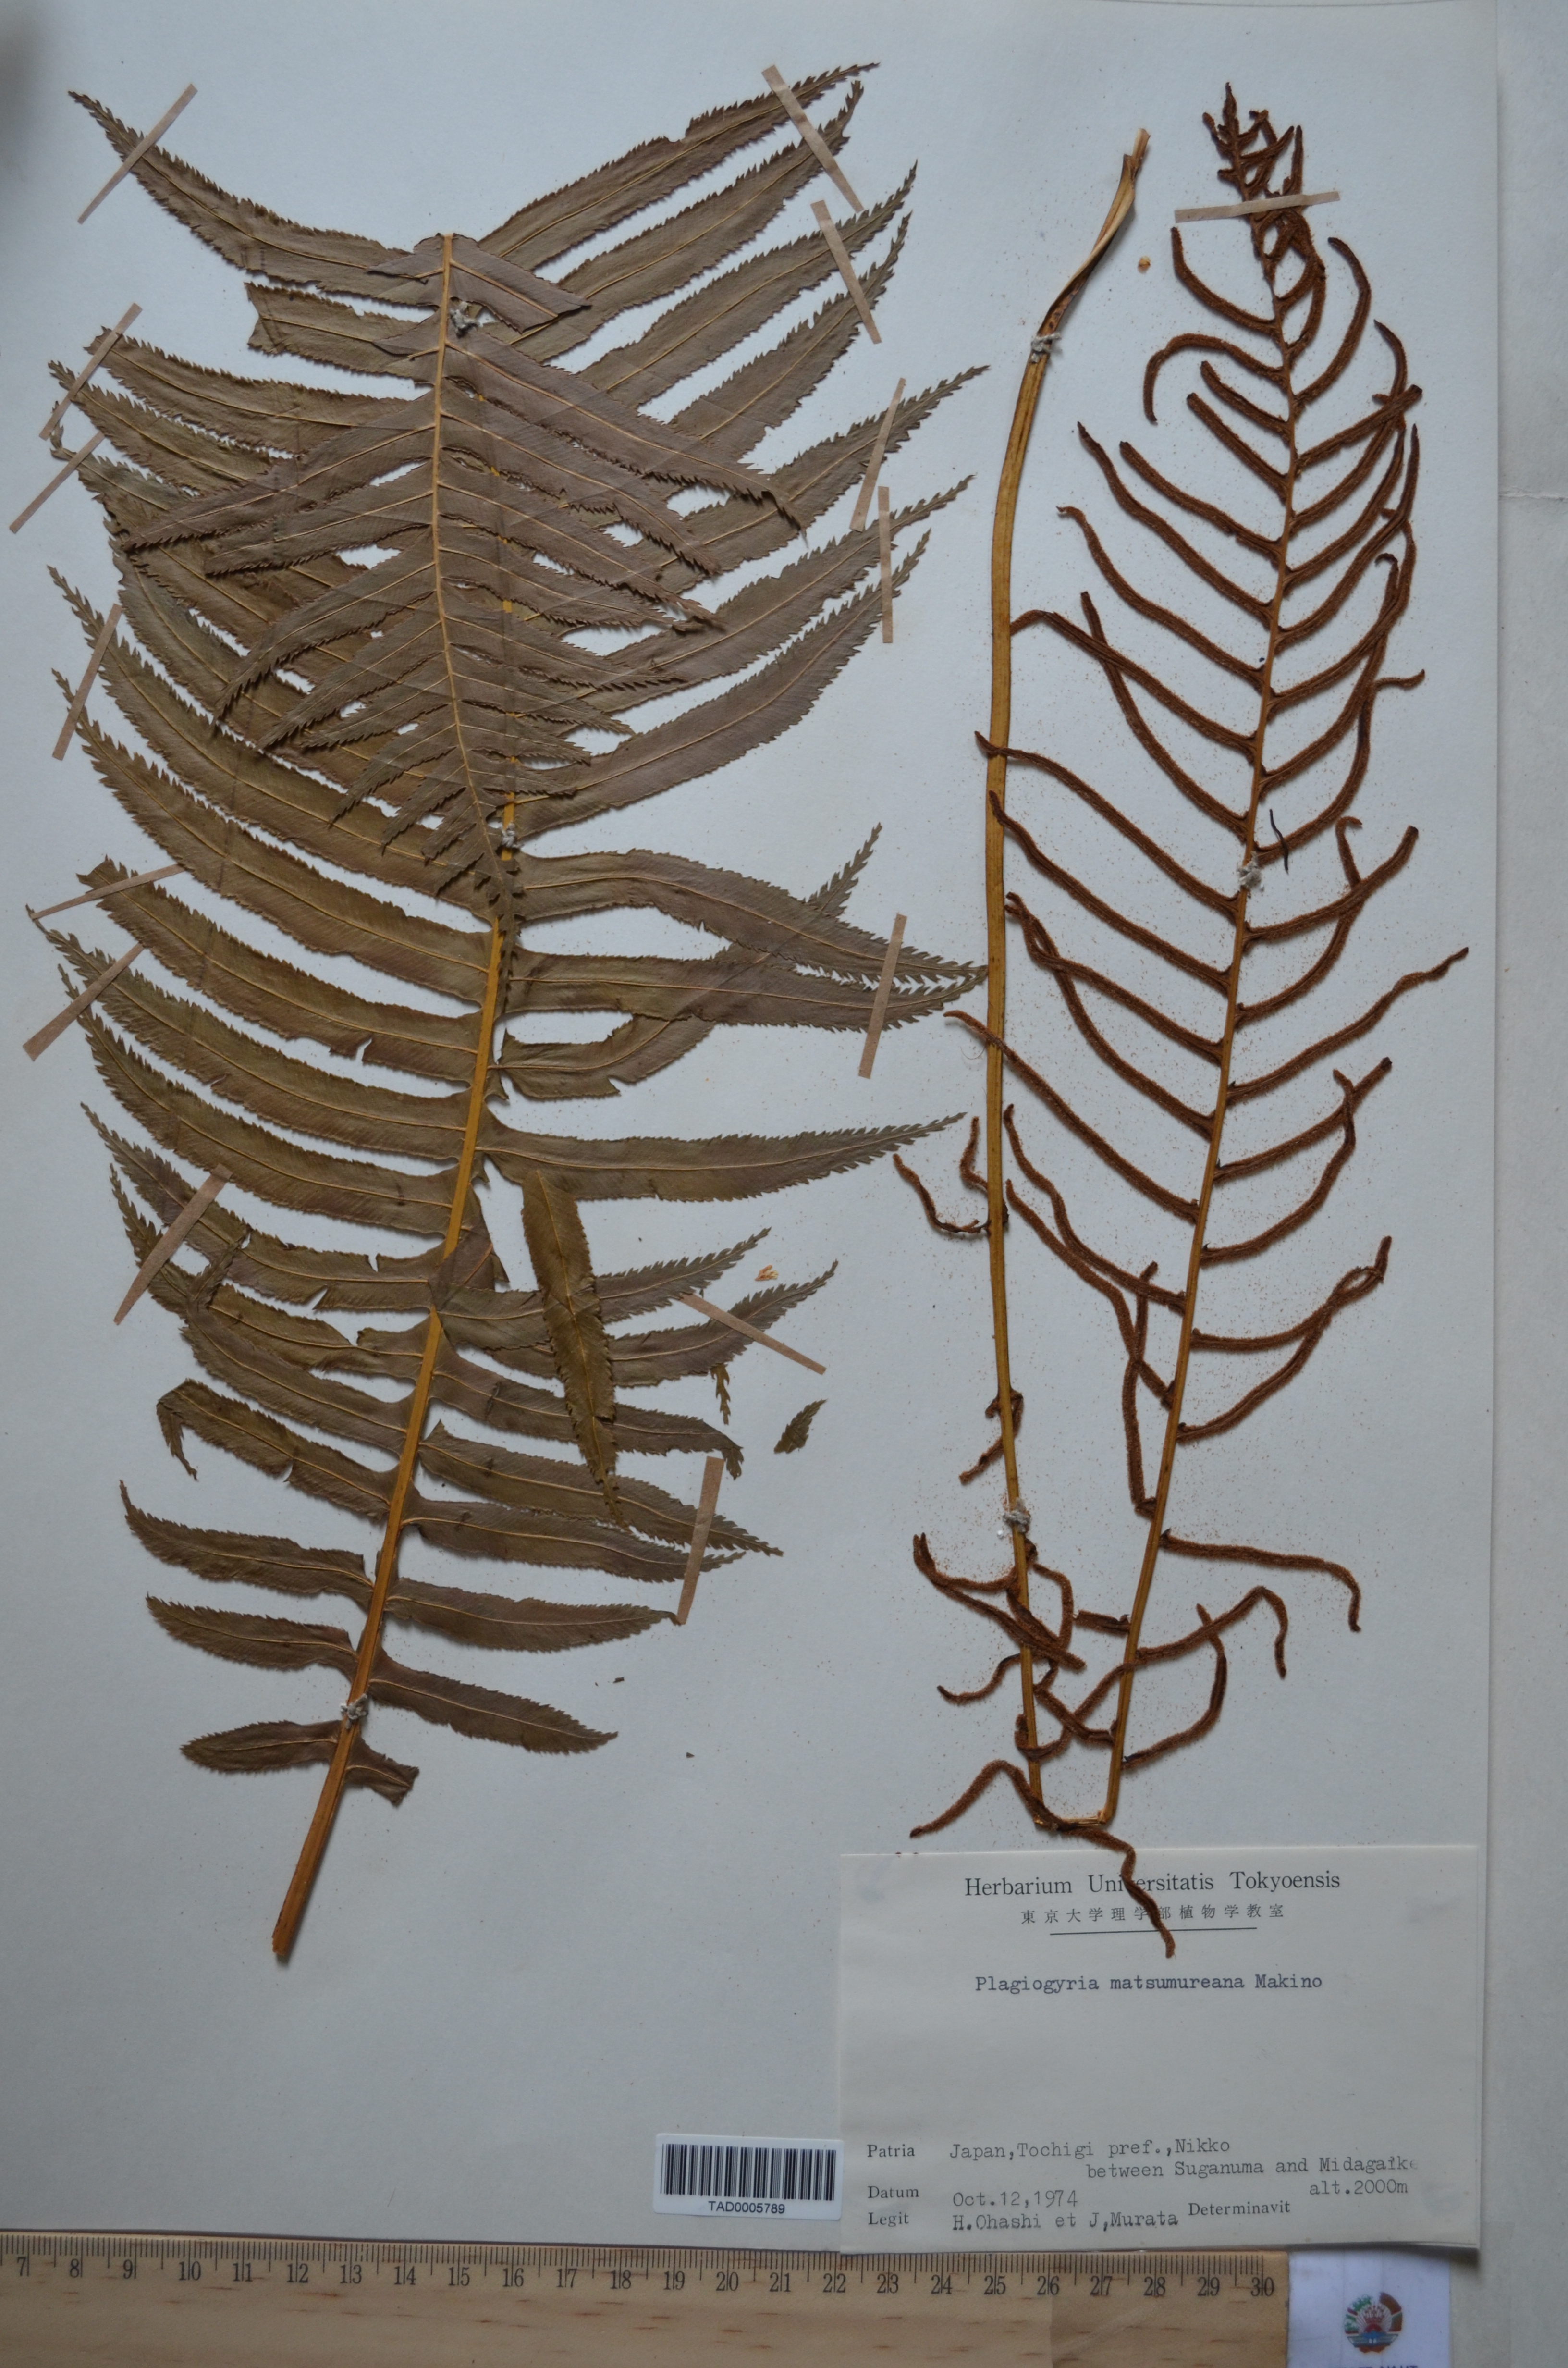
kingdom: Plantae
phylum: Tracheophyta
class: Polypodiopsida
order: Cyatheales
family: Plagiogyriaceae
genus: Plagiogyria
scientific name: Plagiogyria matsumureana
